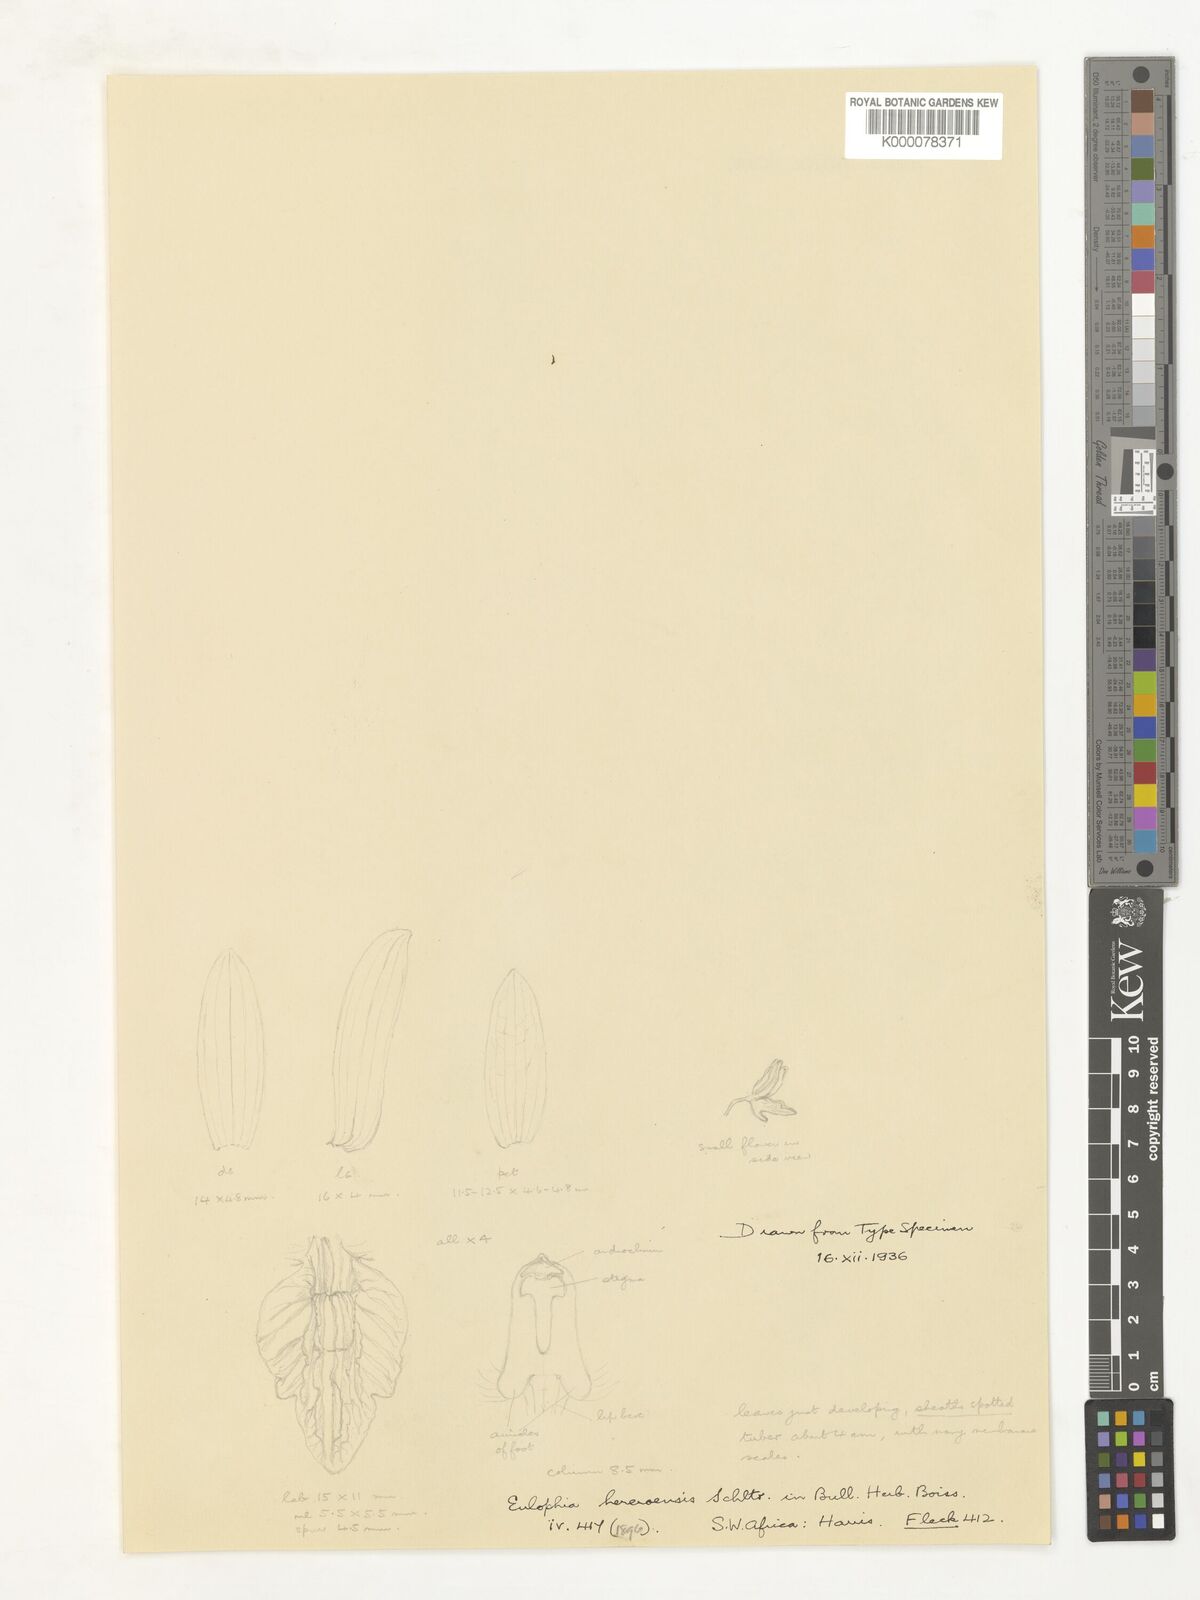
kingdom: Plantae
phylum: Tracheophyta
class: Liliopsida
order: Asparagales
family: Orchidaceae
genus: Eulophia
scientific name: Eulophia
